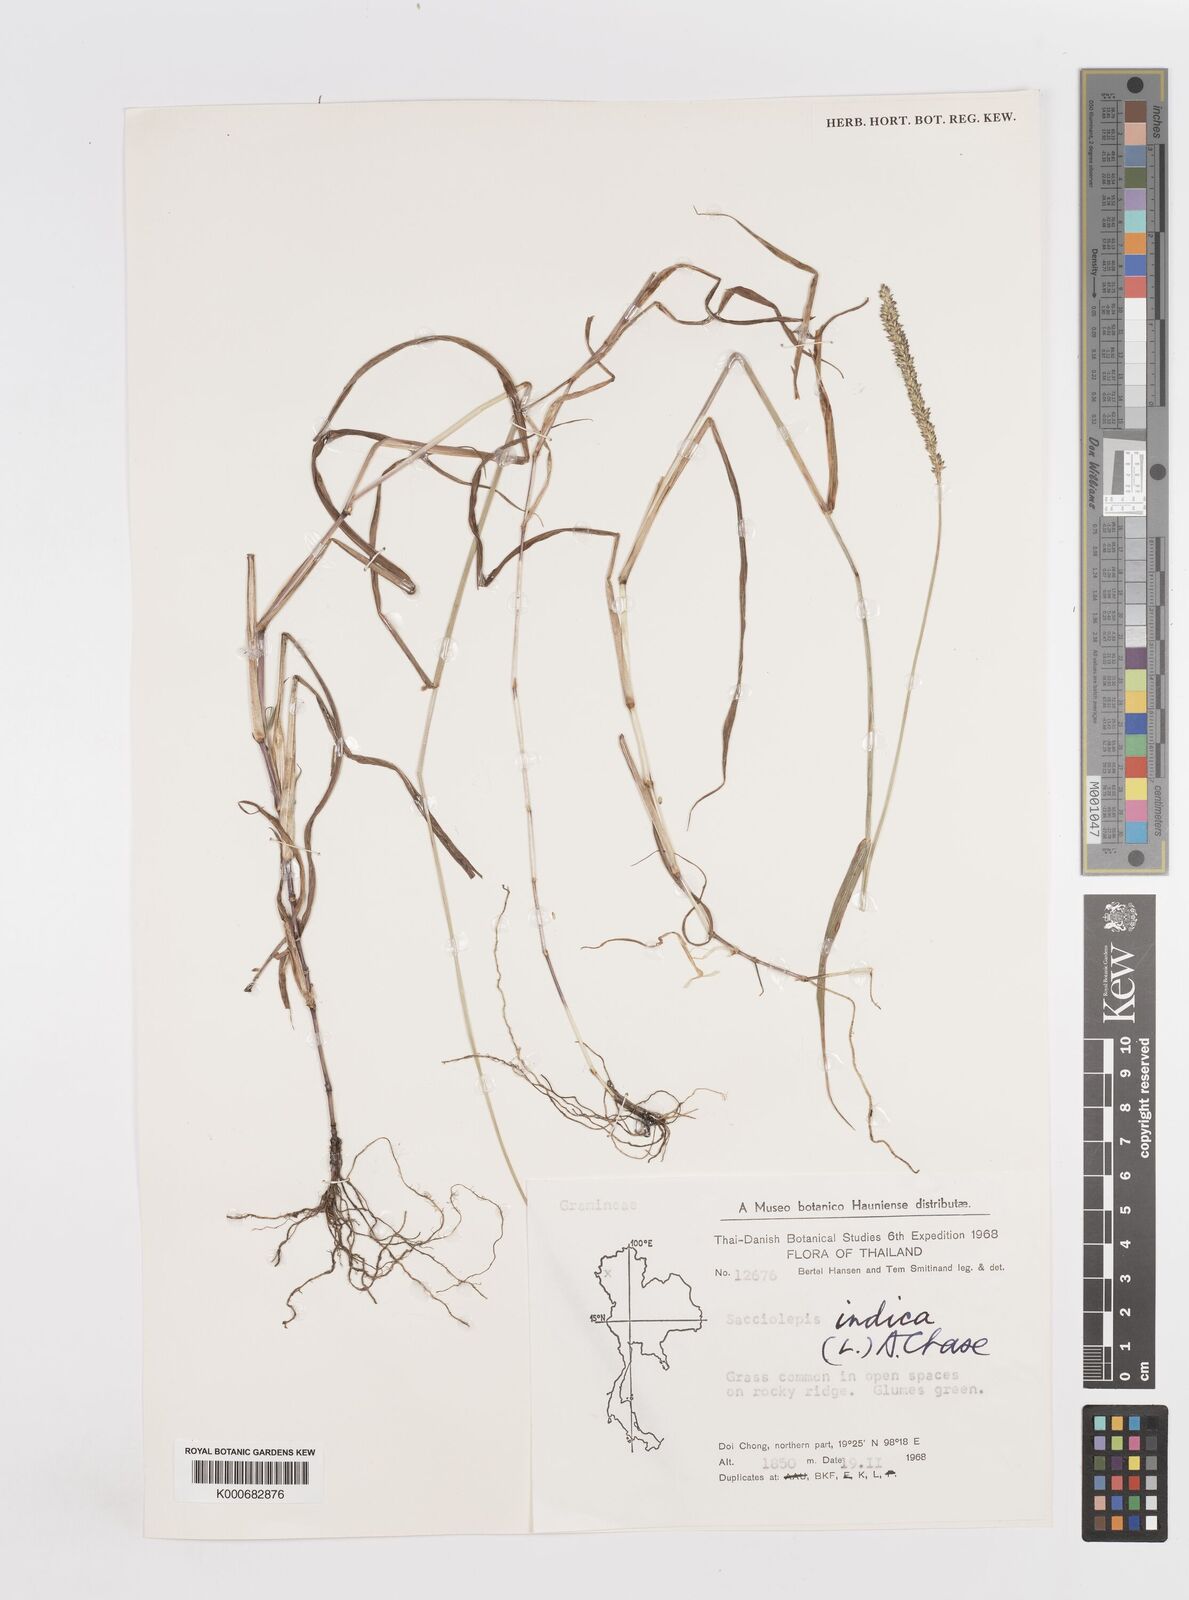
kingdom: Plantae
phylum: Tracheophyta
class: Liliopsida
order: Poales
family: Poaceae
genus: Sacciolepis
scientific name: Sacciolepis indica
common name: Glenwoodgrass
